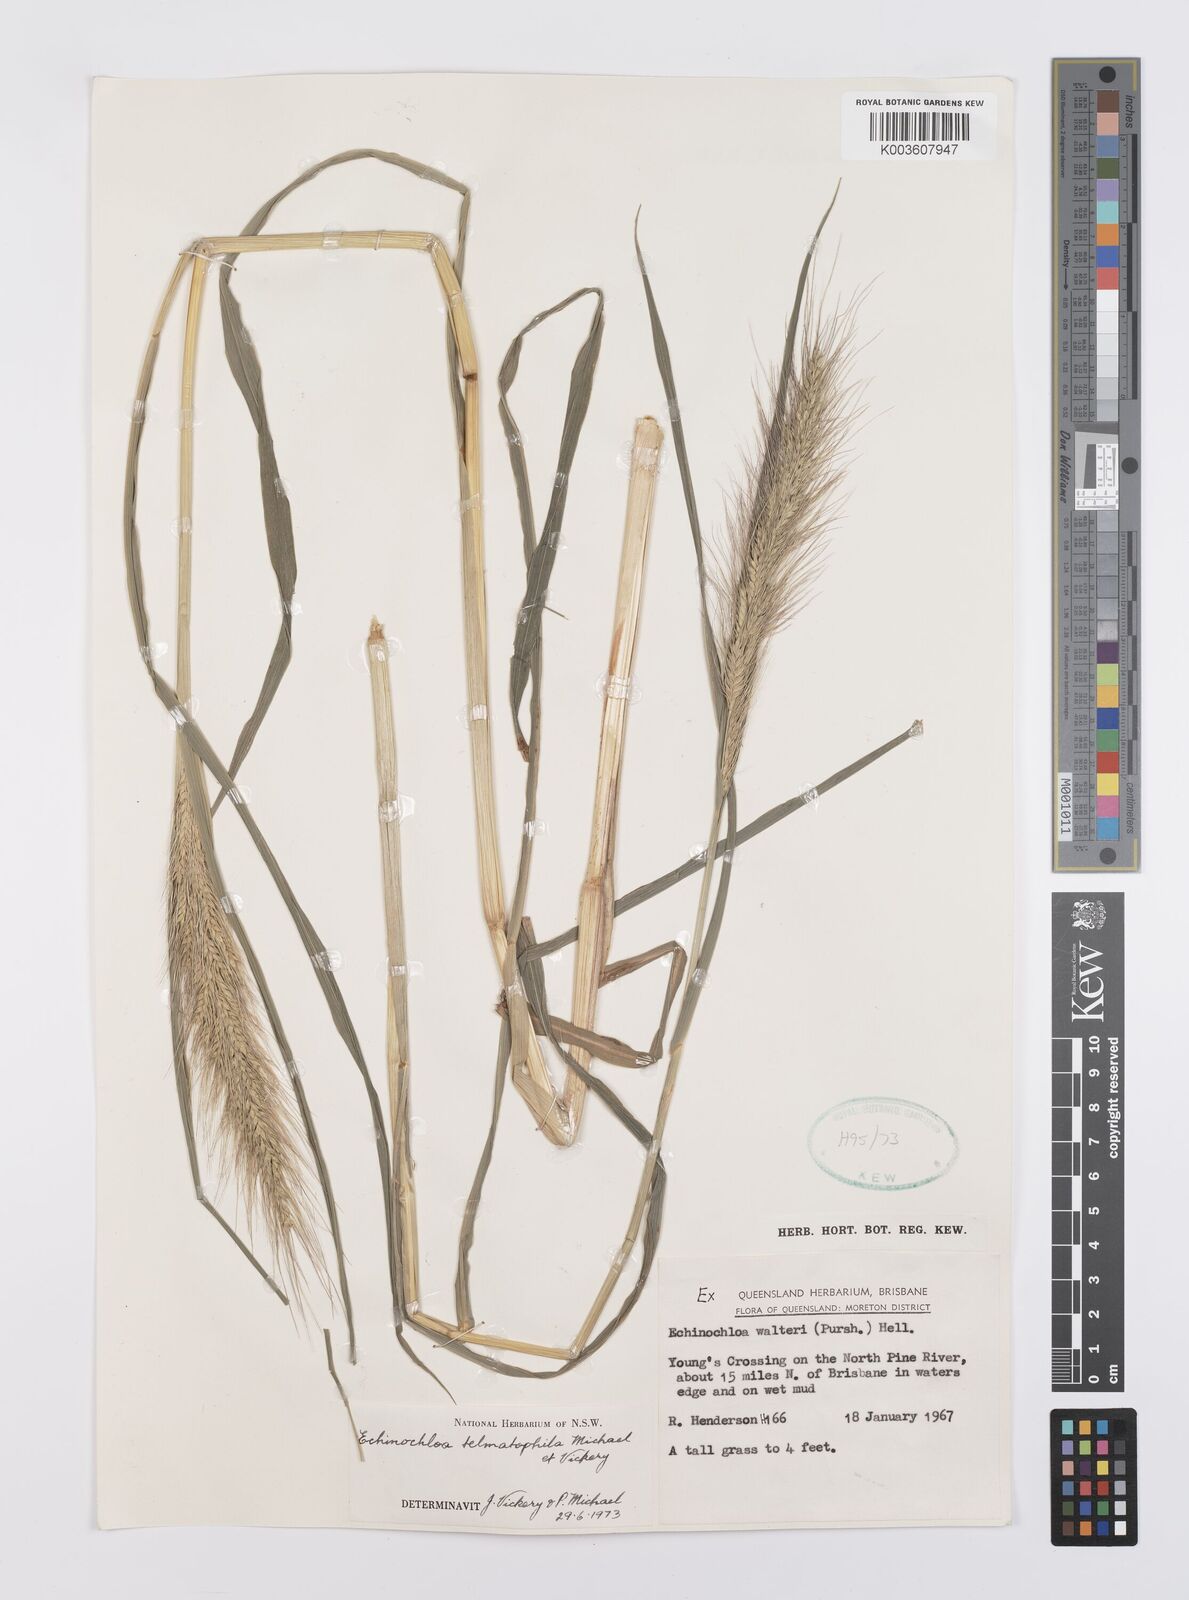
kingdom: Plantae
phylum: Tracheophyta
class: Liliopsida
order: Poales
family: Poaceae
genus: Echinochloa
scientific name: Echinochloa crus-galli
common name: Cockspur
